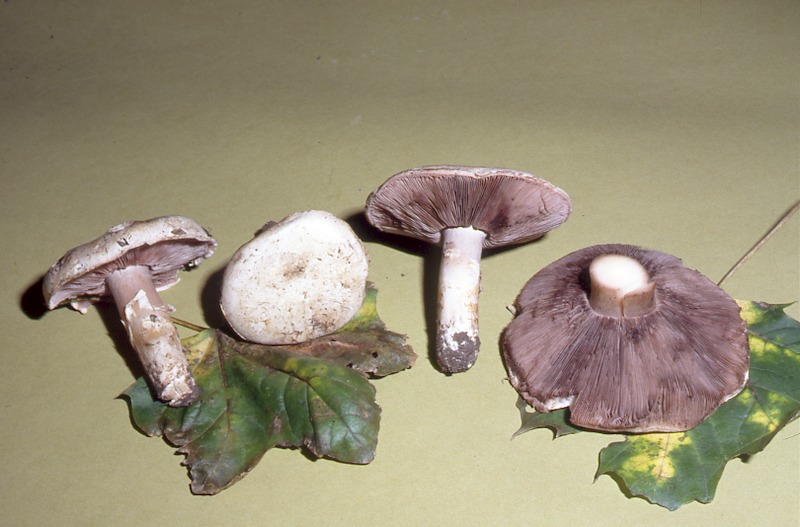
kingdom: Fungi
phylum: Basidiomycota
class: Agaricomycetes
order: Agaricales
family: Agaricaceae
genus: Agaricus
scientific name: Agaricus bisporus
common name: Cultivated mushroom
